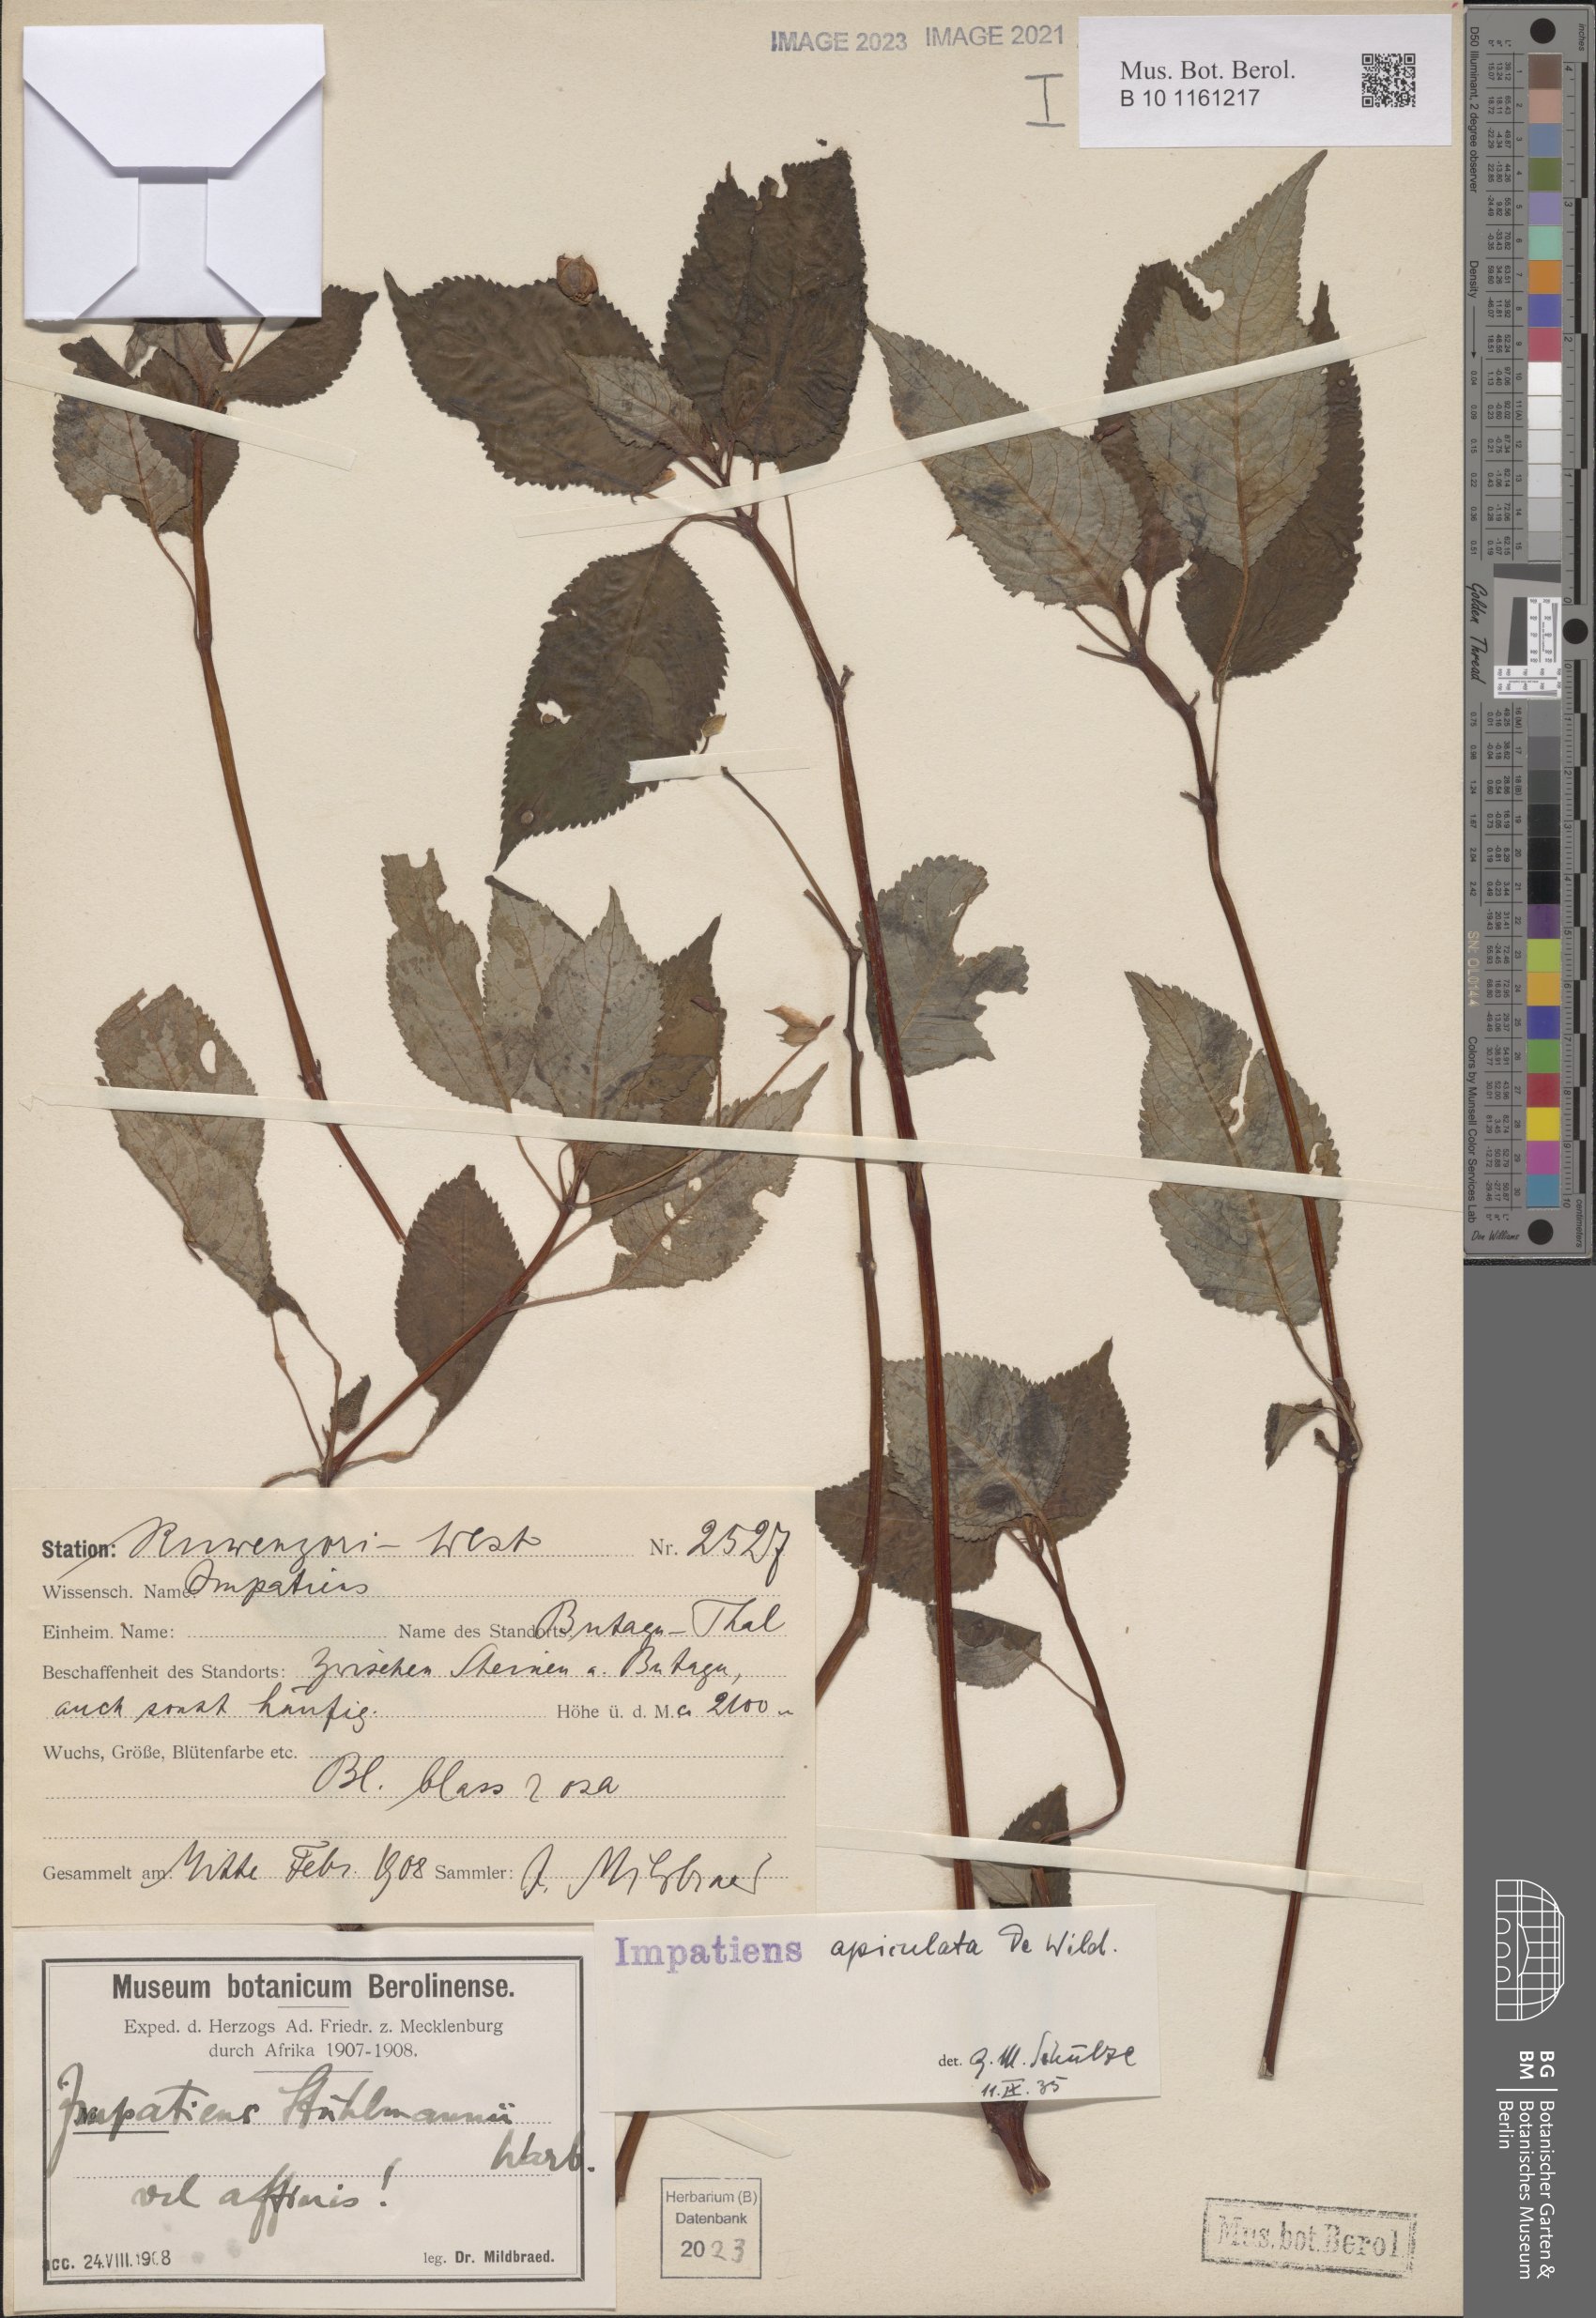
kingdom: Plantae
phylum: Tracheophyta
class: Magnoliopsida
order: Ericales
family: Balsaminaceae
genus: Impatiens
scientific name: Impatiens apiculata
